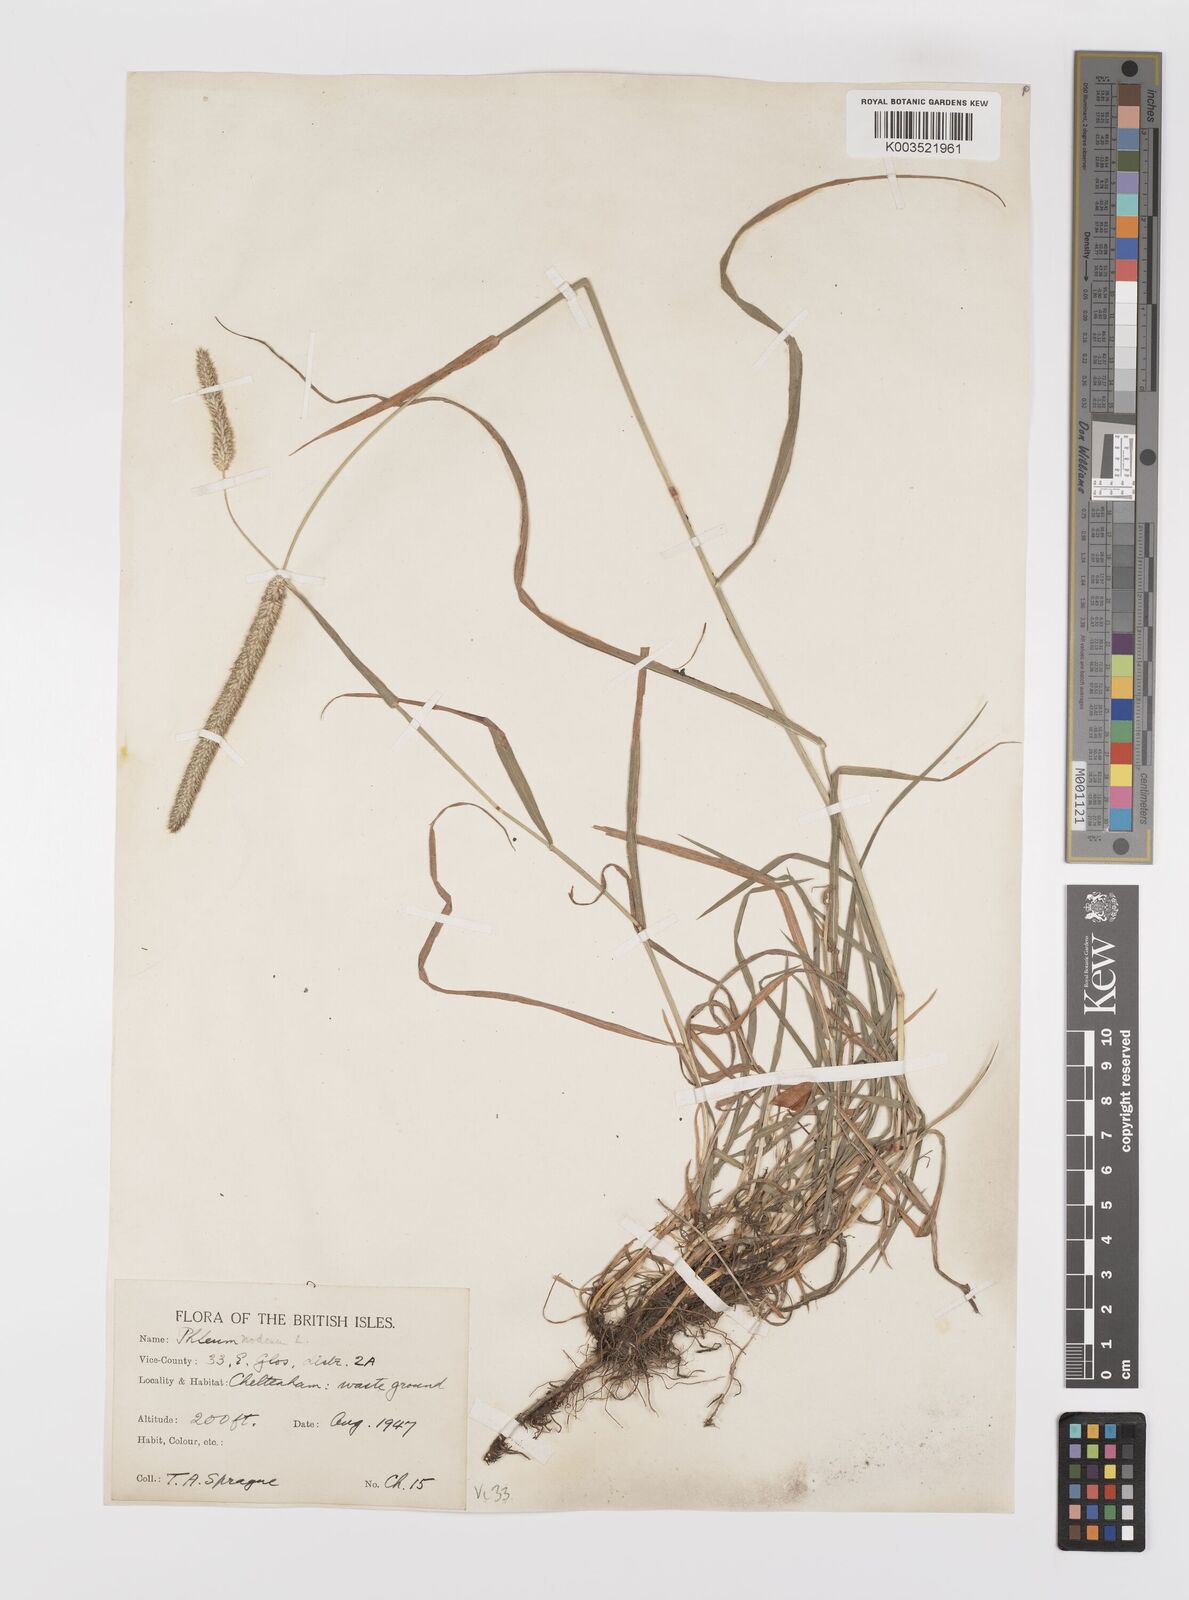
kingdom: Plantae
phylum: Tracheophyta
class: Liliopsida
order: Poales
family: Poaceae
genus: Phleum
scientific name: Phleum bertolonii
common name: Smaller cat's-tail
